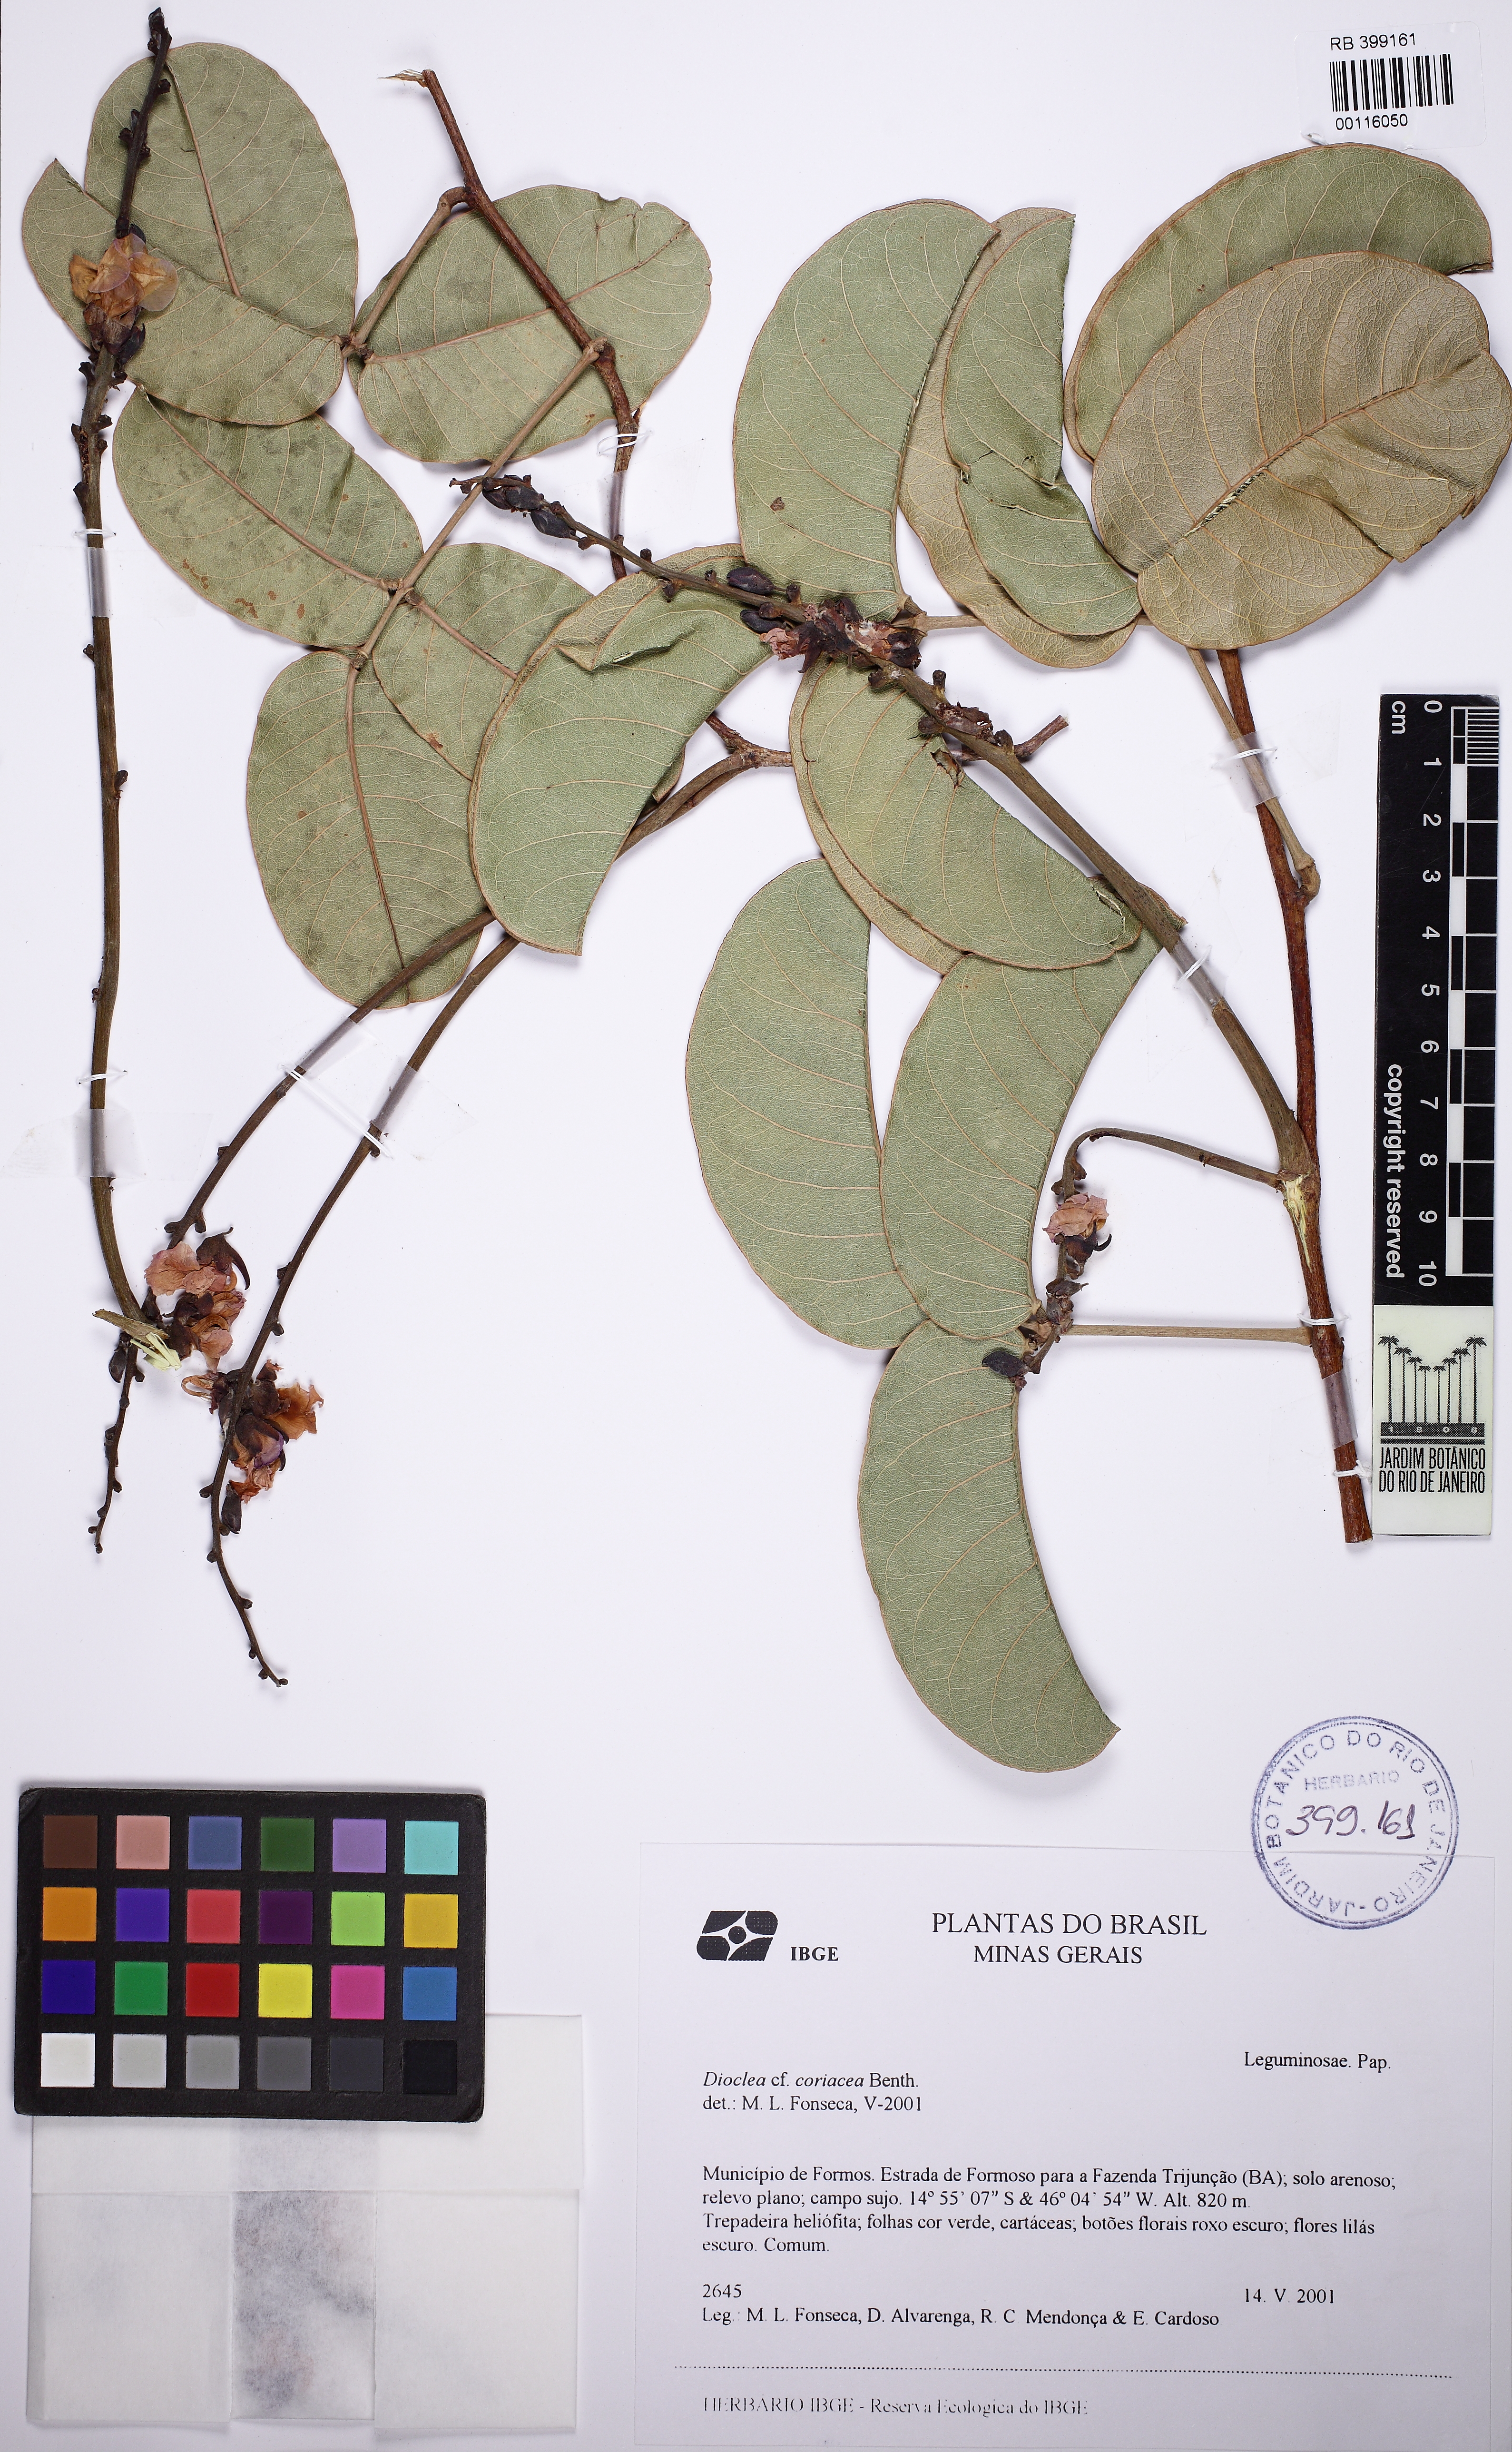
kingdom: Plantae
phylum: Tracheophyta
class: Magnoliopsida
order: Fabales
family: Fabaceae
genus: Macropsychanthus
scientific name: Macropsychanthus coriaceus
